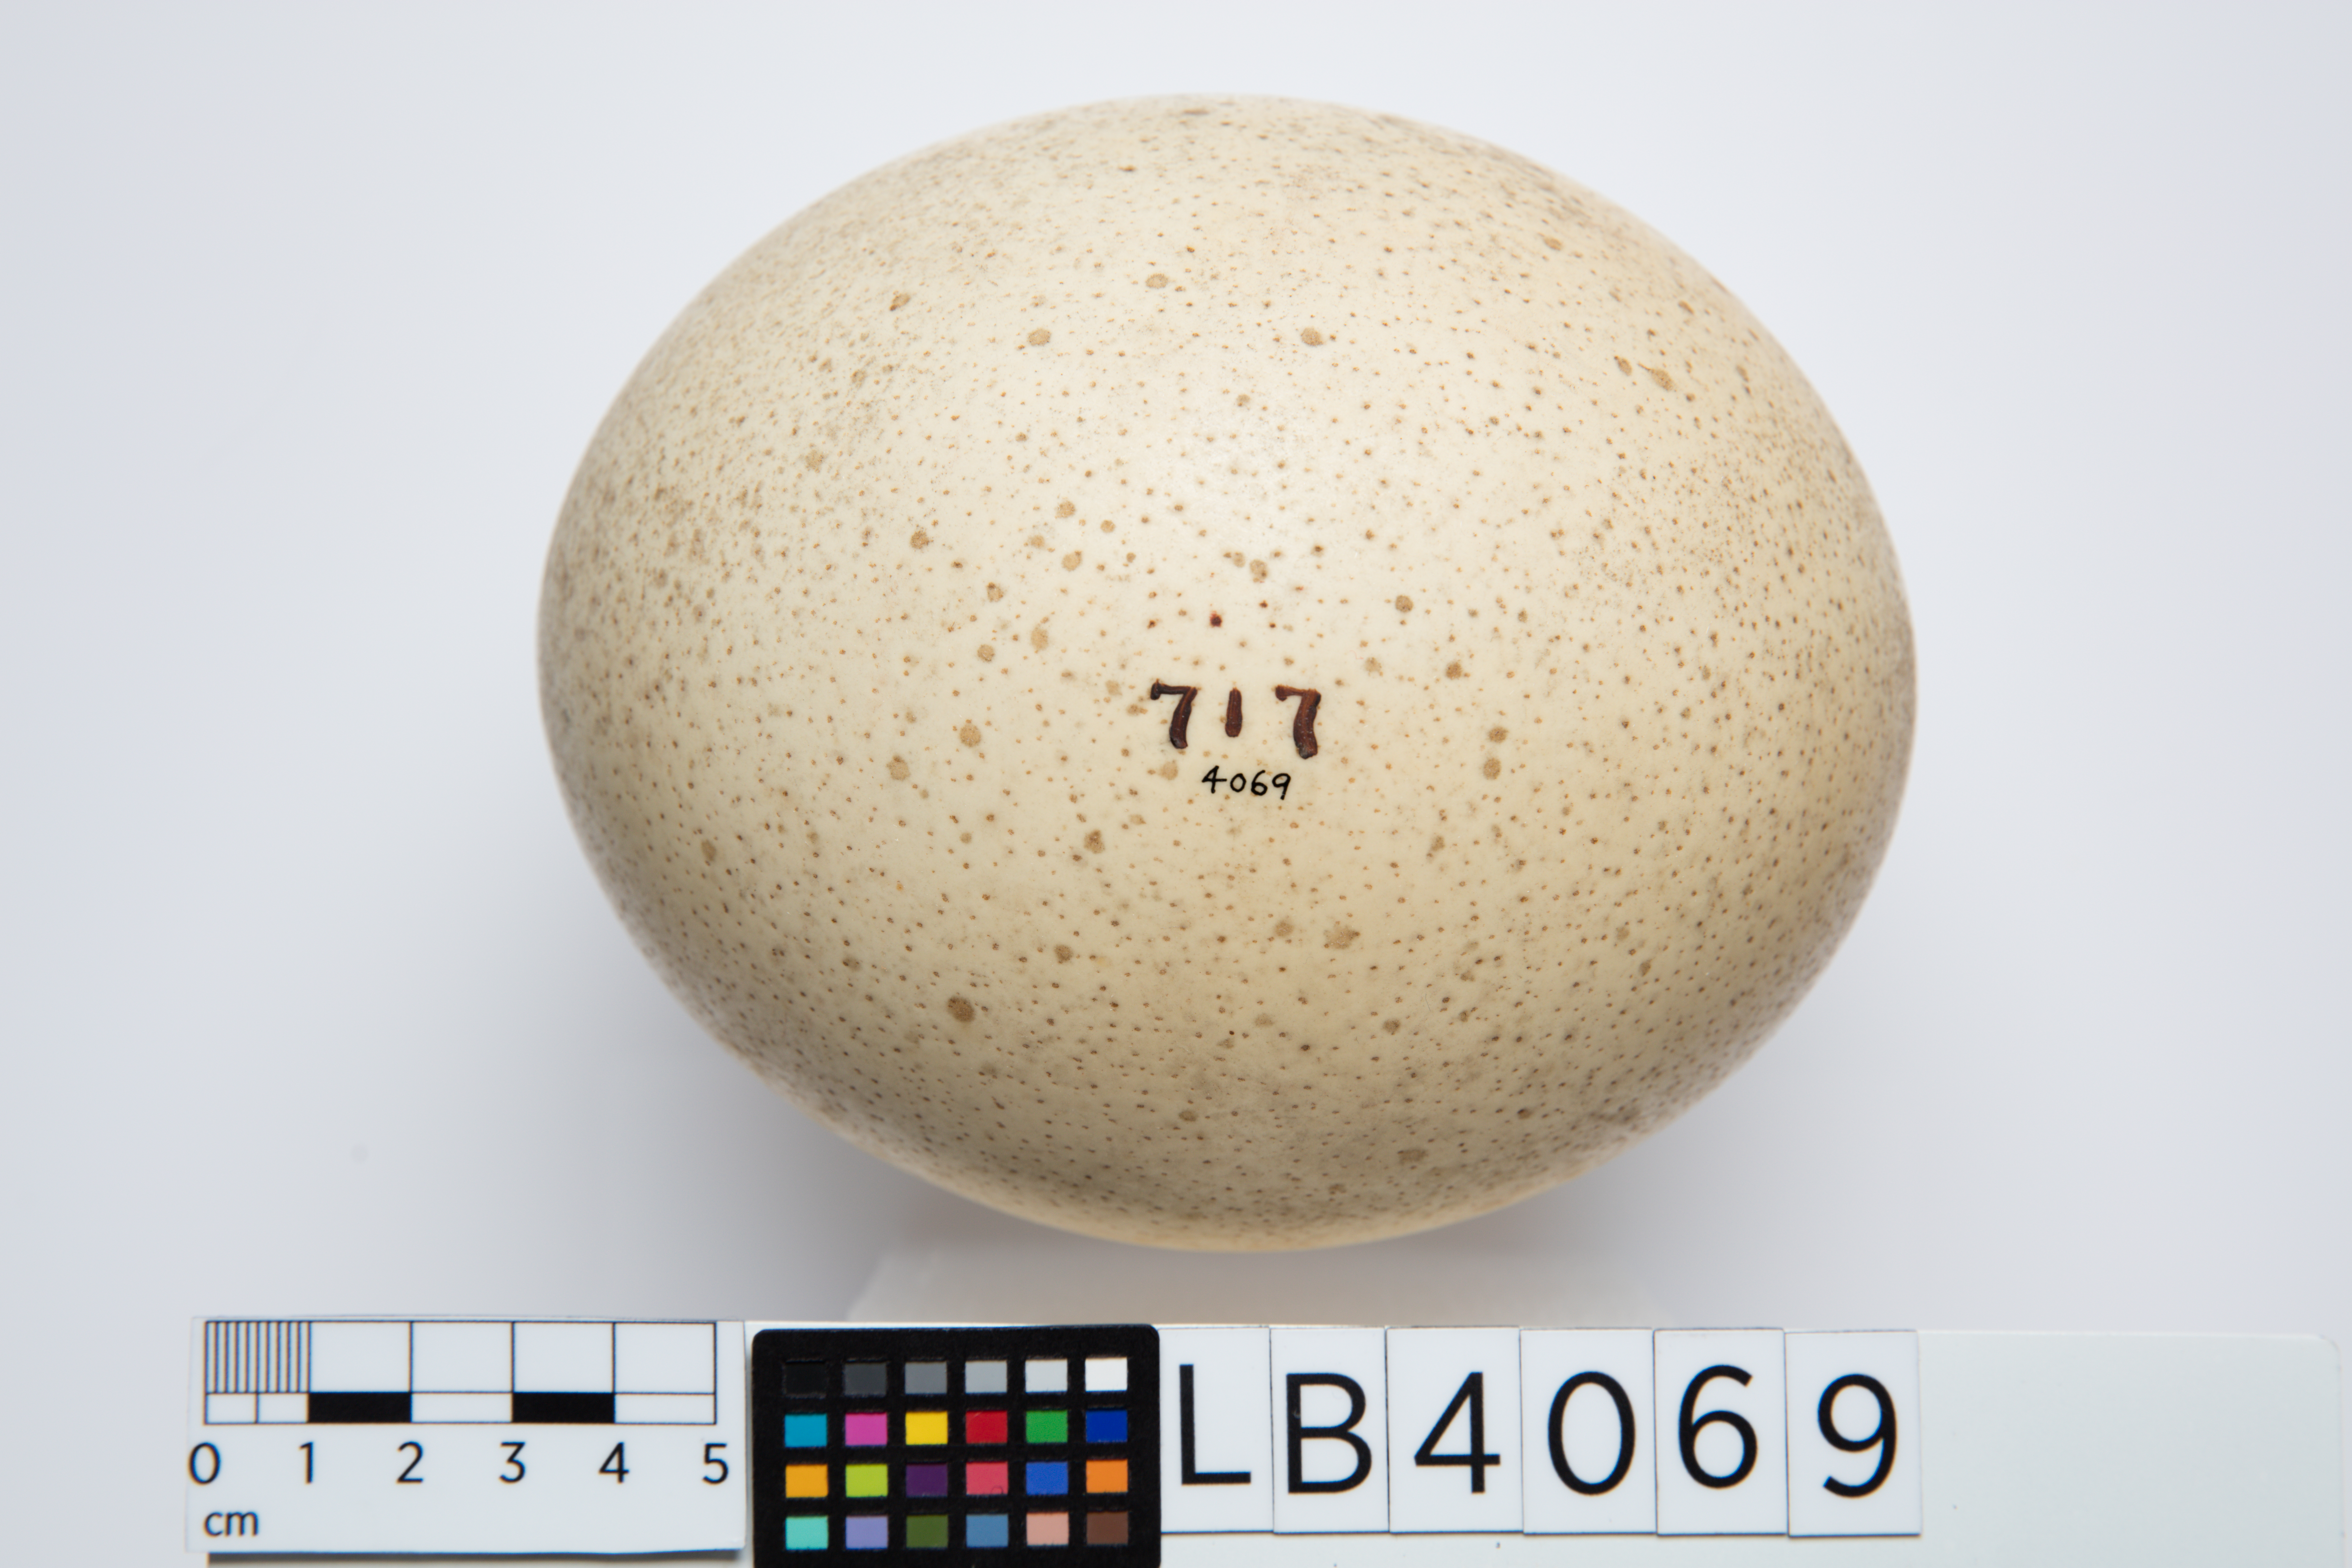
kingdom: Animalia
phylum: Chordata
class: Aves
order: Struthioniformes
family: Struthionidae
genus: Struthio
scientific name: Struthio camelus
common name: Common ostrich
